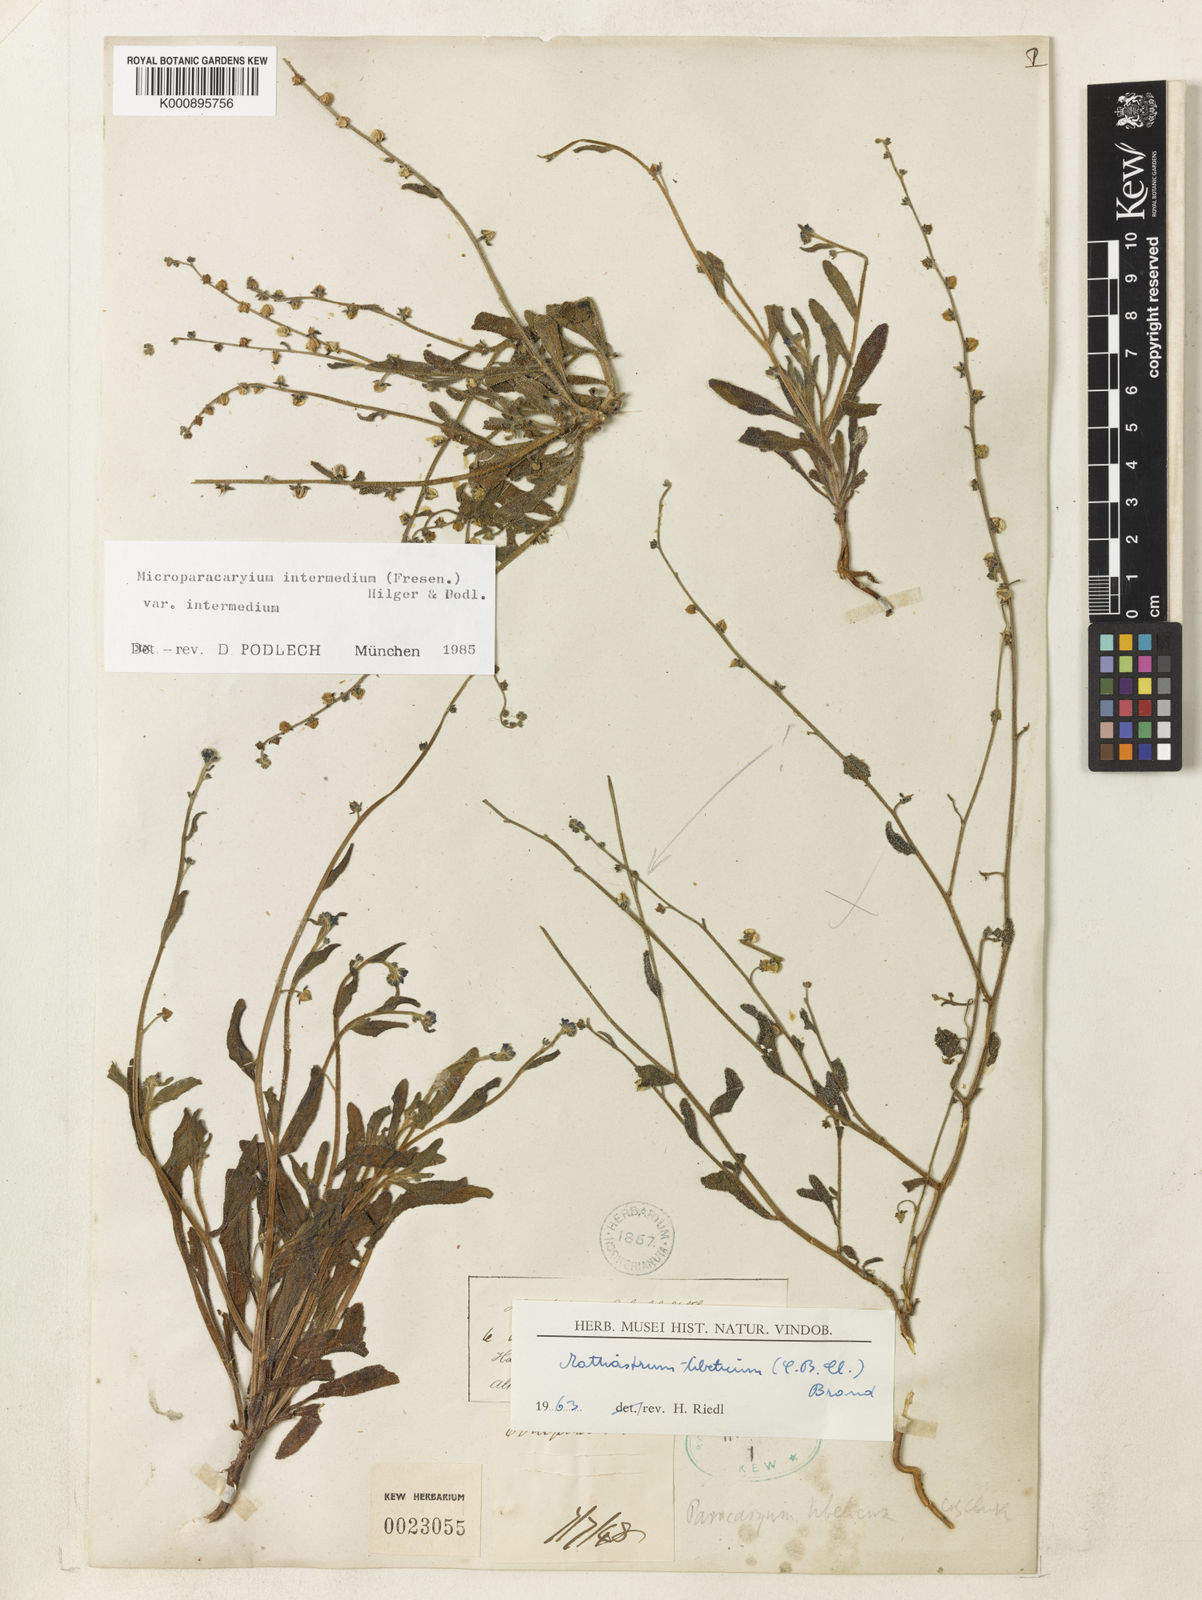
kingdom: Plantae
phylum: Tracheophyta
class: Magnoliopsida
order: Boraginales
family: Boraginaceae
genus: Microparacaryum
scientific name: Microparacaryum intermedium
